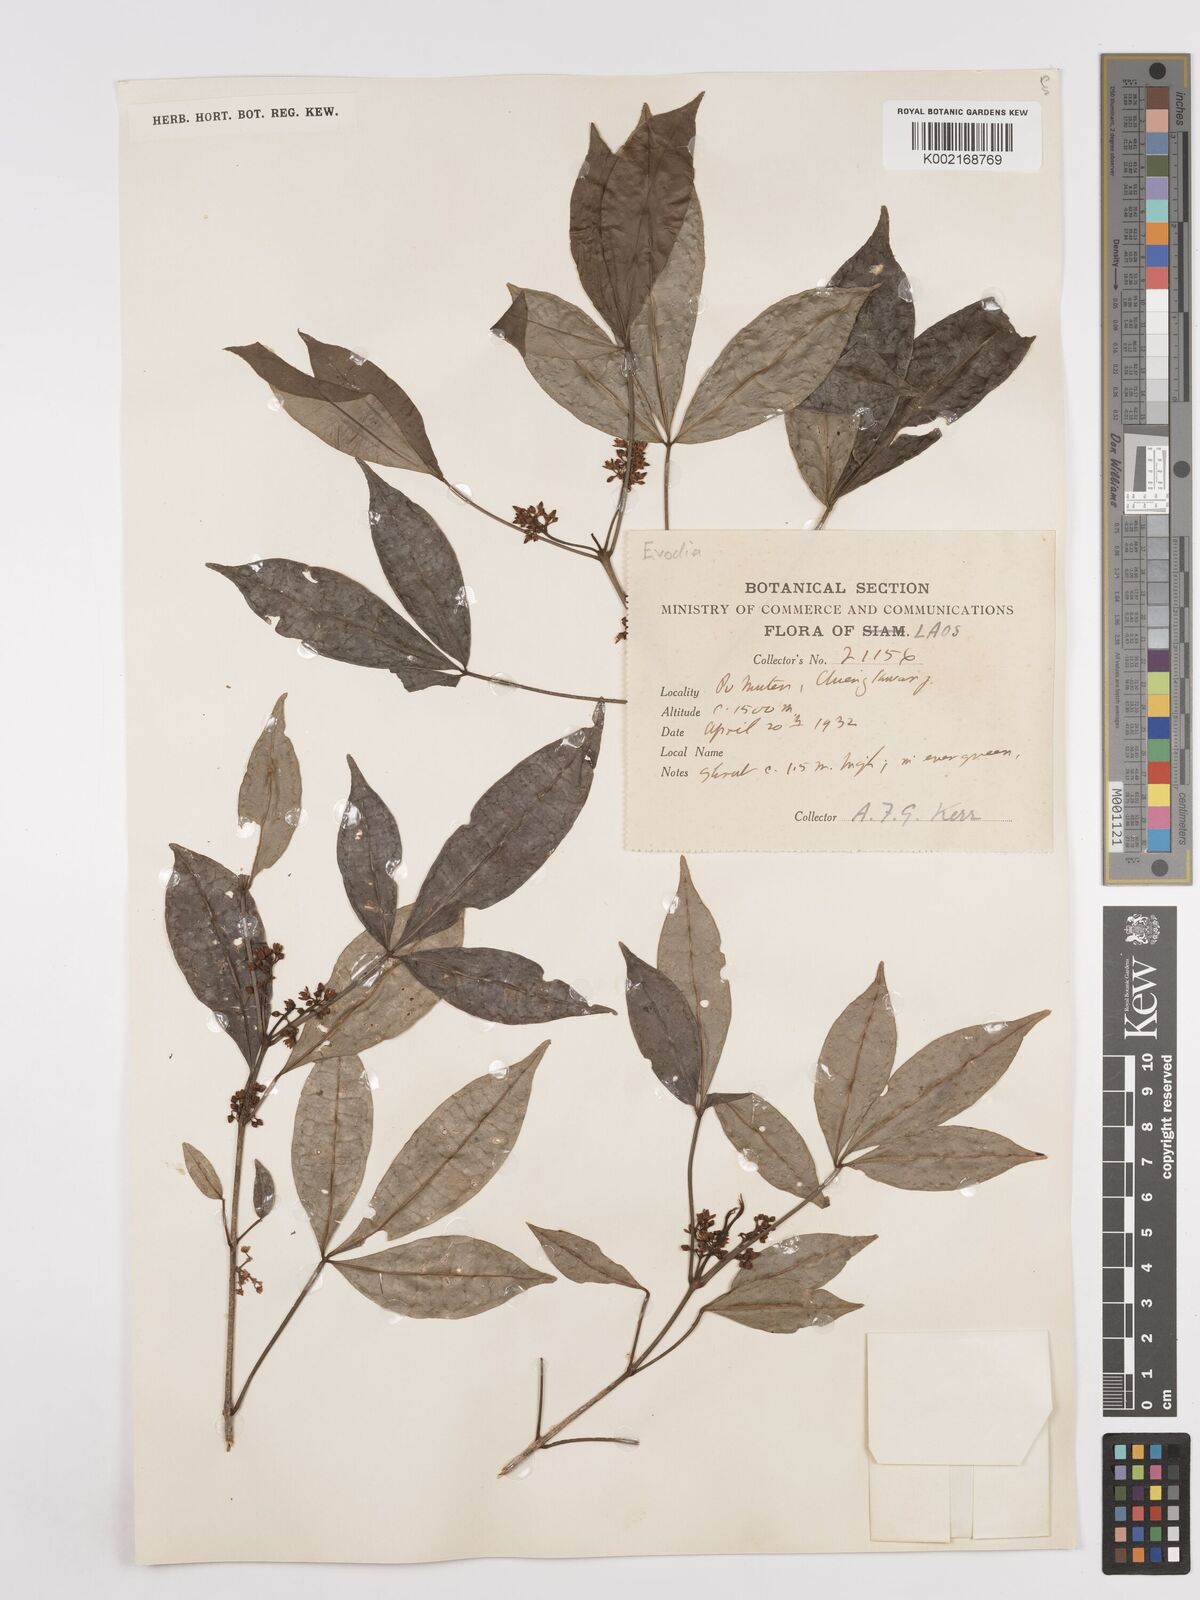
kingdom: Plantae
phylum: Tracheophyta
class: Magnoliopsida
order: Sapindales
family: Rutaceae
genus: Euodia
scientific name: Euodia
